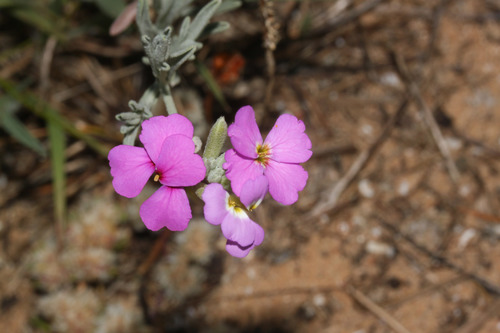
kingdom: Plantae
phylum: Tracheophyta
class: Magnoliopsida
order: Brassicales
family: Brassicaceae
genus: Marcuskochia
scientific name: Marcuskochia littorea
